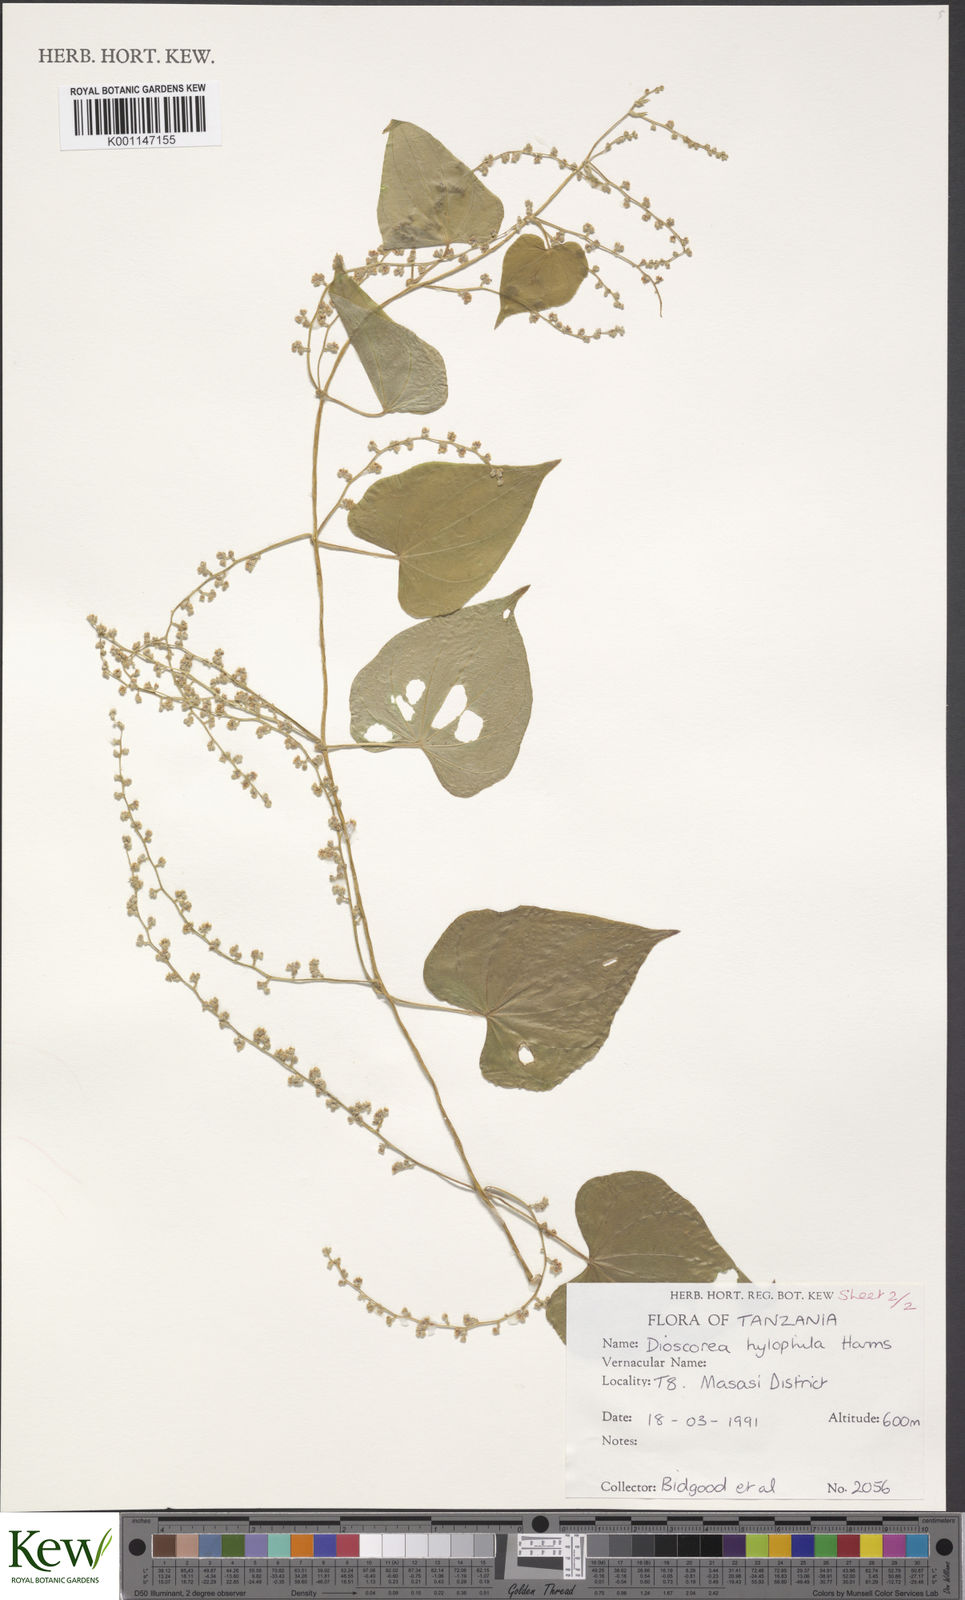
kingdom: Plantae
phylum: Tracheophyta
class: Liliopsida
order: Dioscoreales
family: Dioscoreaceae
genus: Dioscorea
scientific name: Dioscorea
